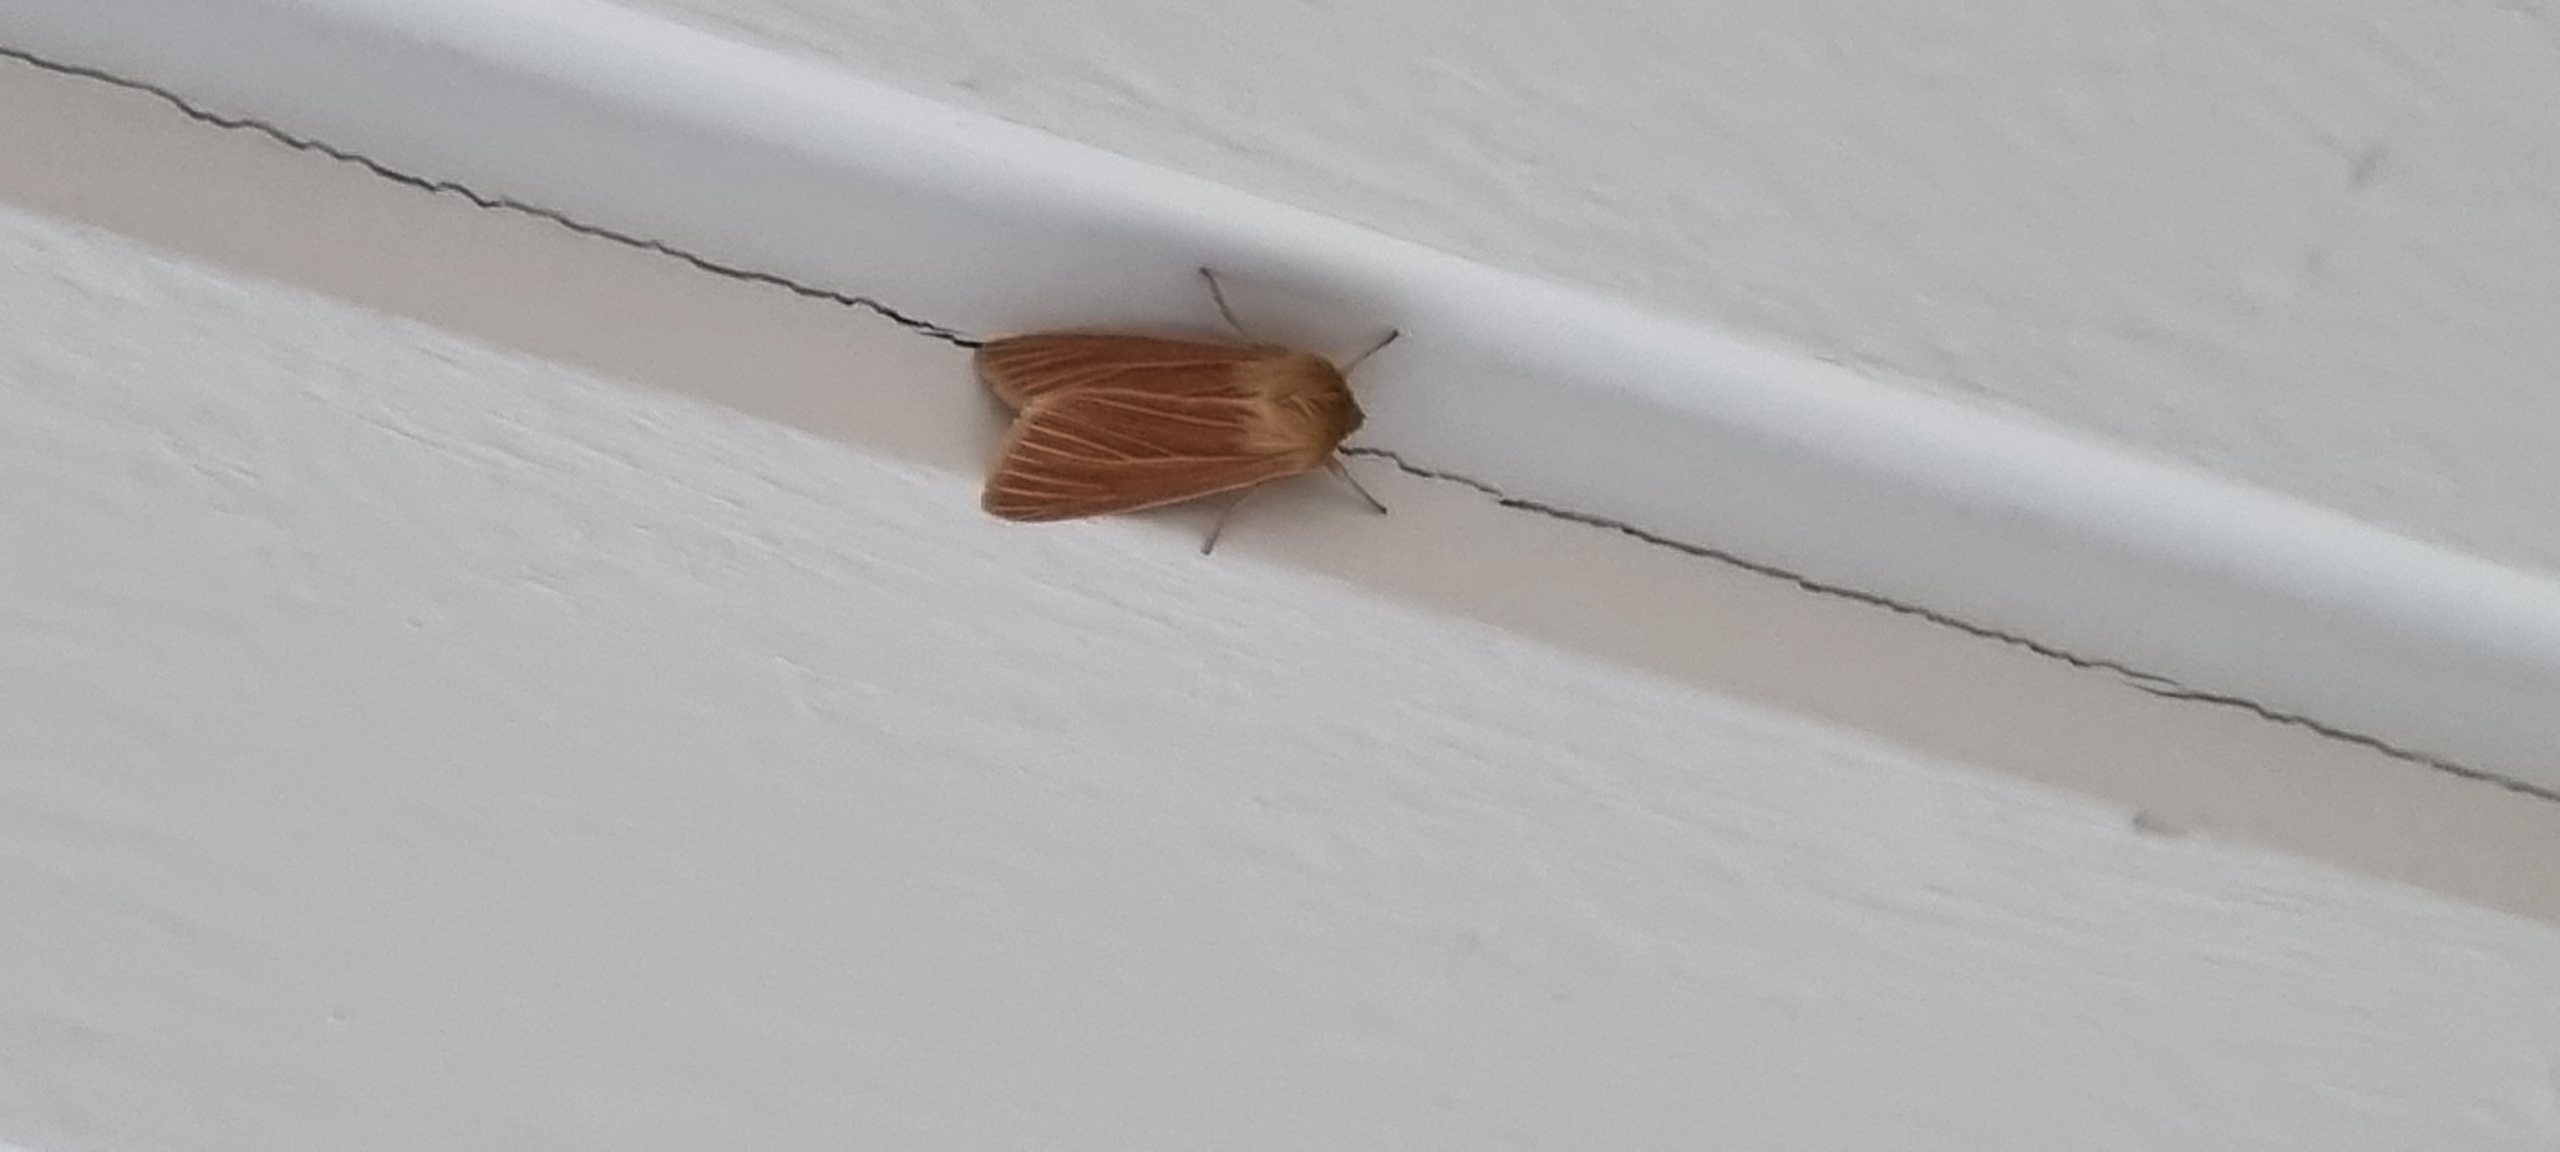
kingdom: Animalia
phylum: Arthropoda
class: Insecta
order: Lepidoptera
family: Noctuidae
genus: Mythimna
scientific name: Mythimna pallens
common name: Halmugle
